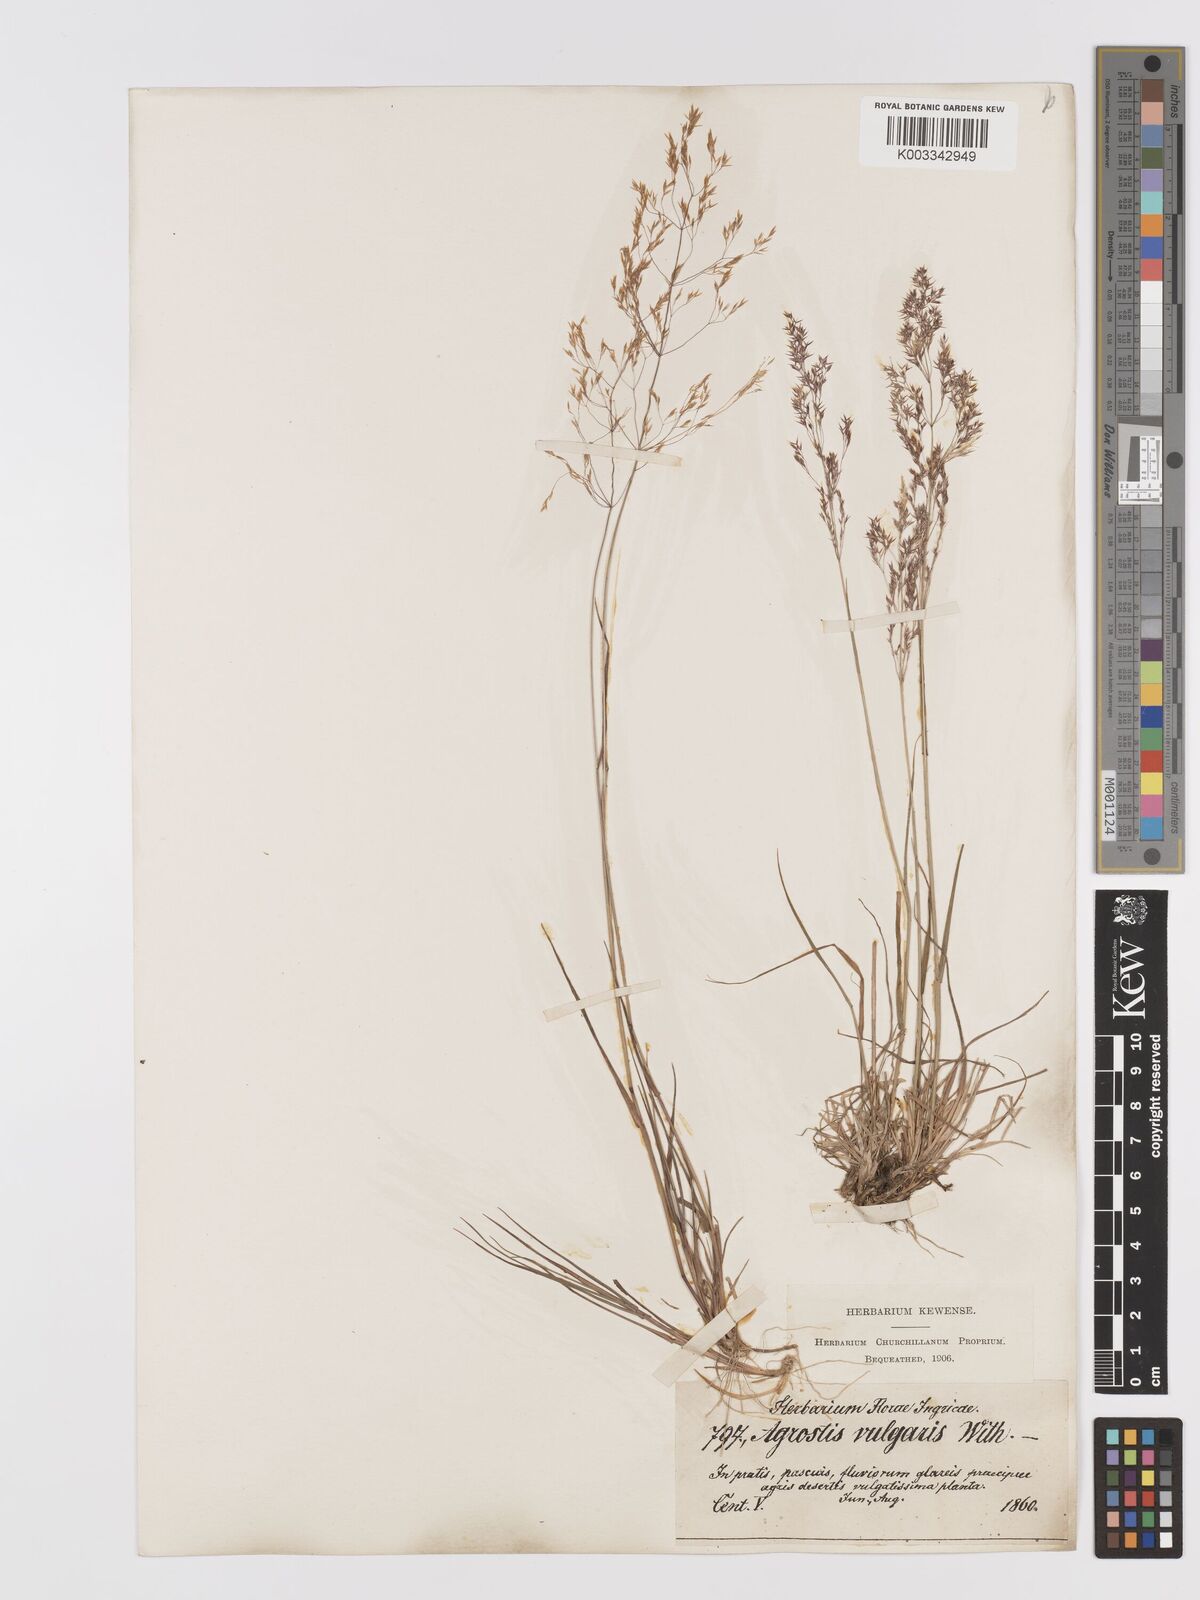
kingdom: Plantae
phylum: Tracheophyta
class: Liliopsida
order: Poales
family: Poaceae
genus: Agrostis
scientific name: Agrostis capillaris
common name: Colonial bentgrass
